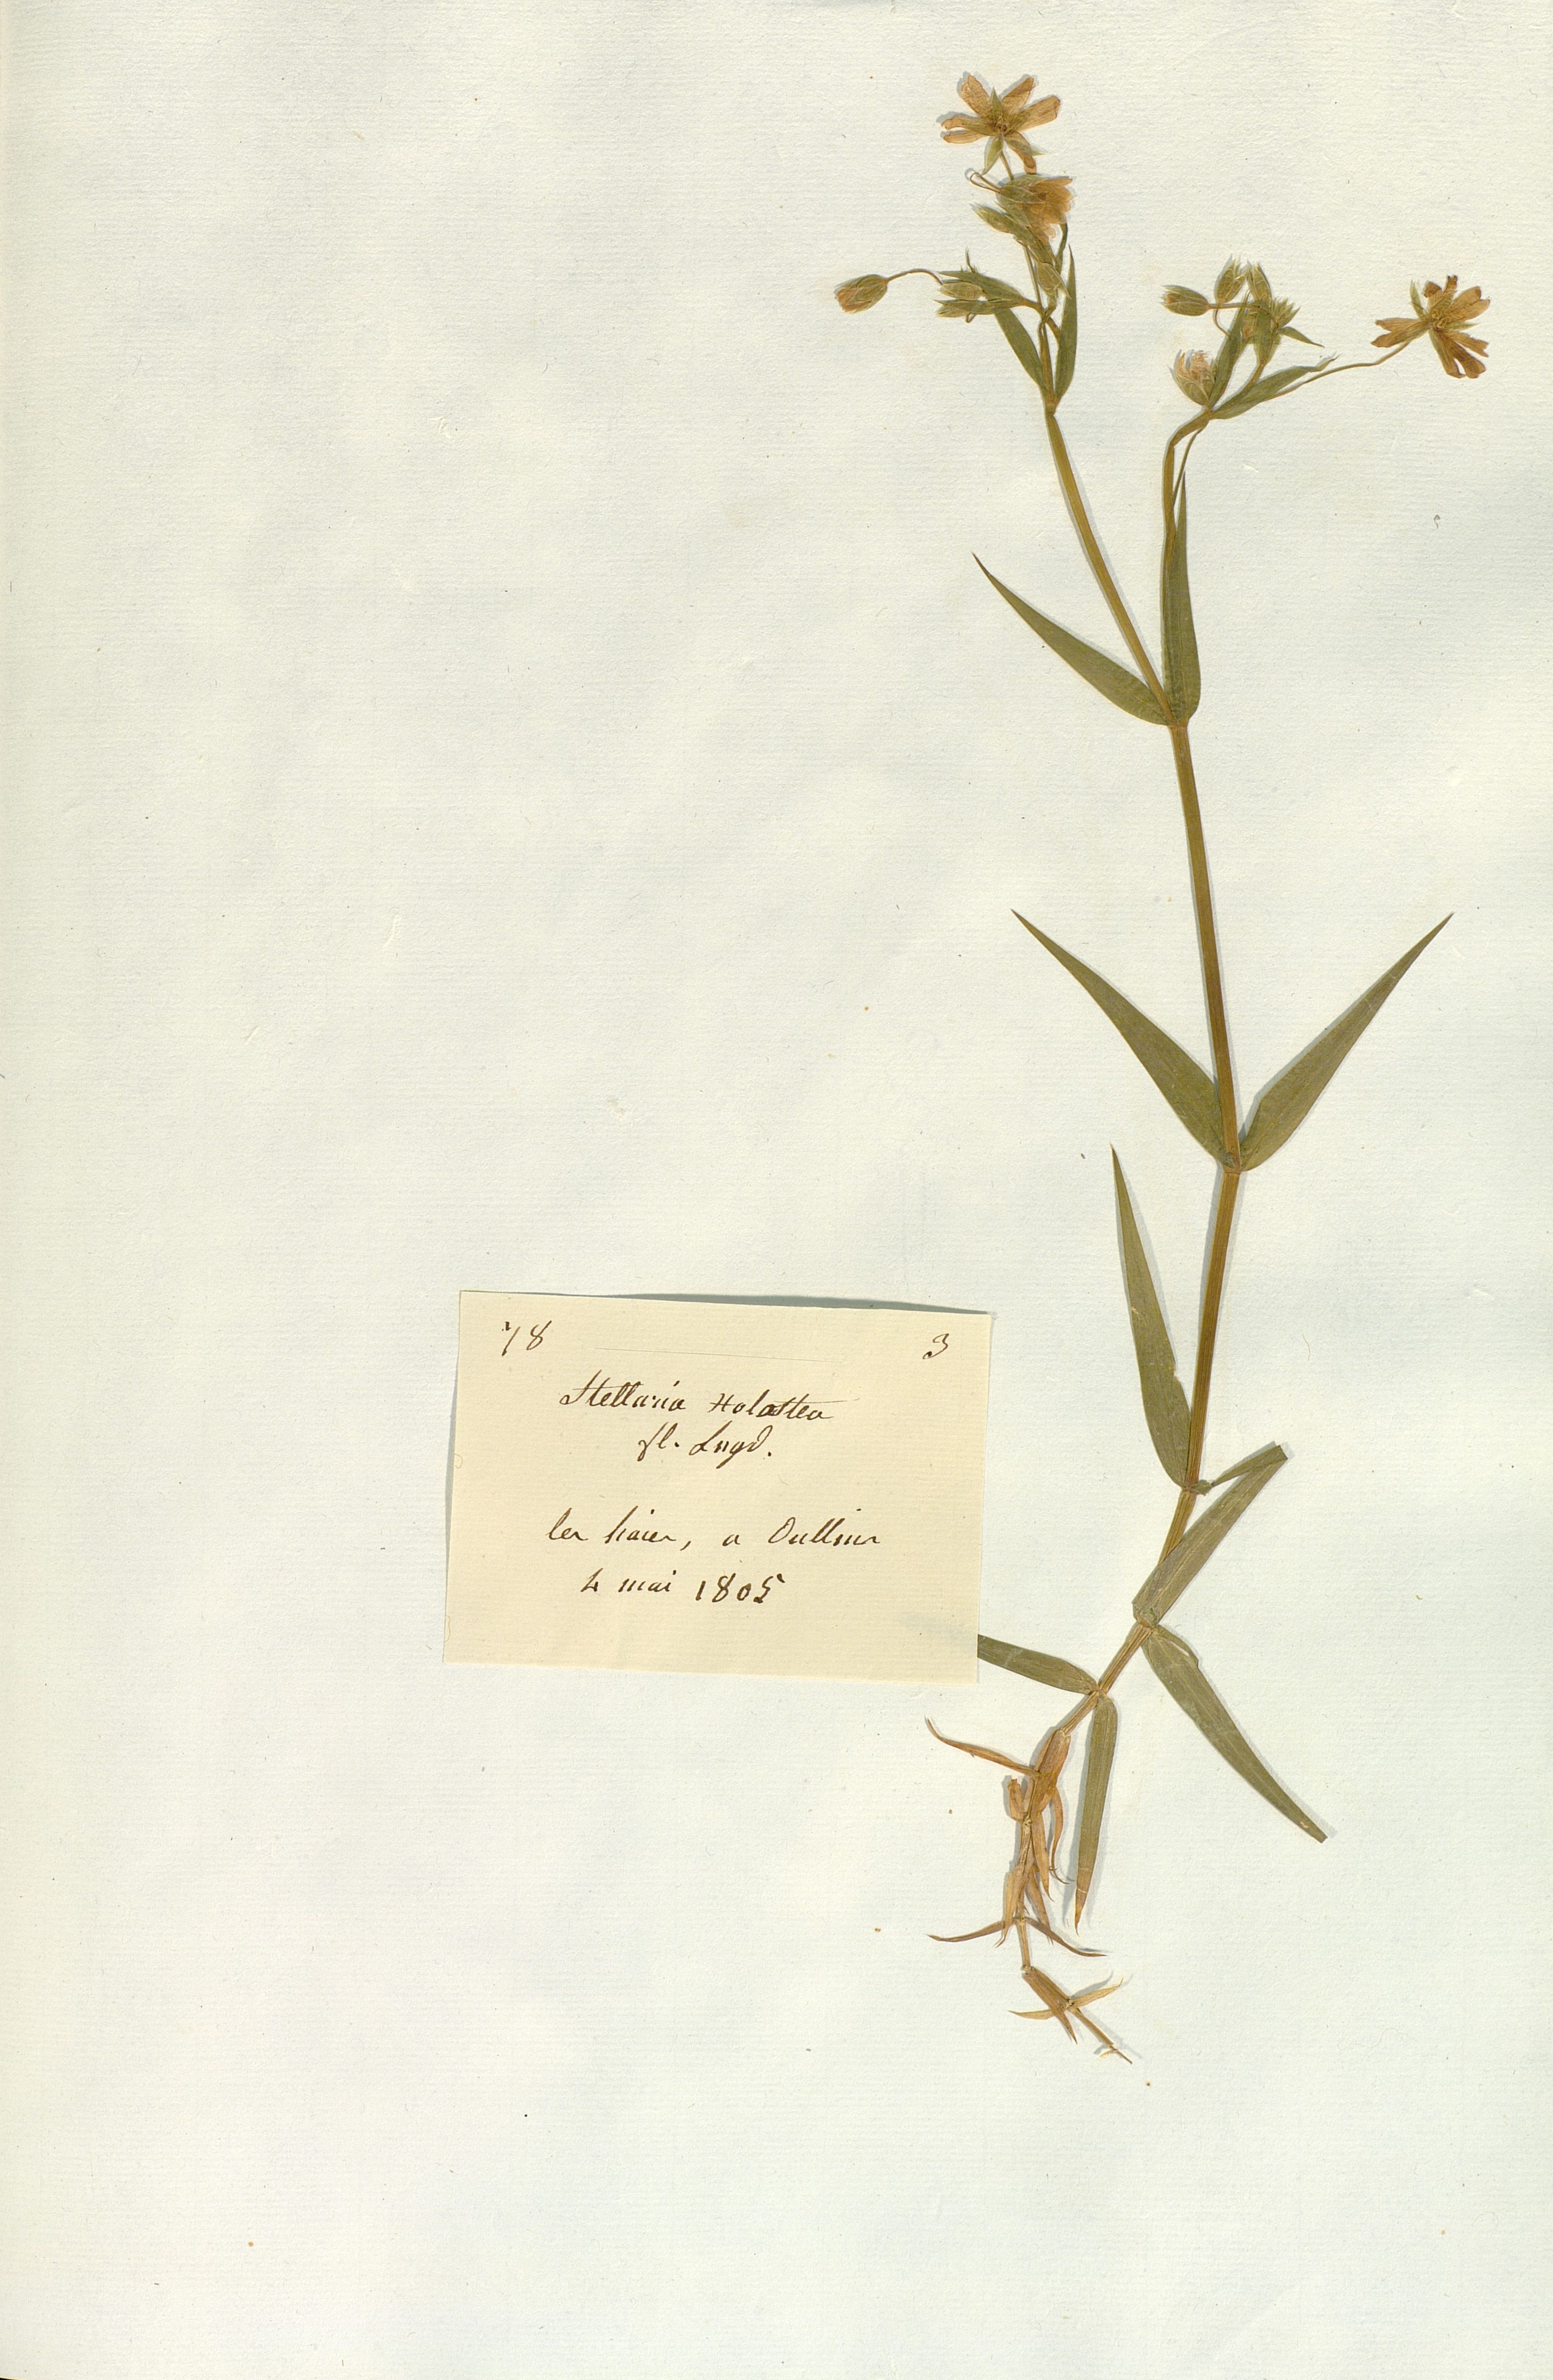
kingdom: Plantae
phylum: Tracheophyta
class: Magnoliopsida
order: Caryophyllales
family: Caryophyllaceae
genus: Rabelera
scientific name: Rabelera holostea
